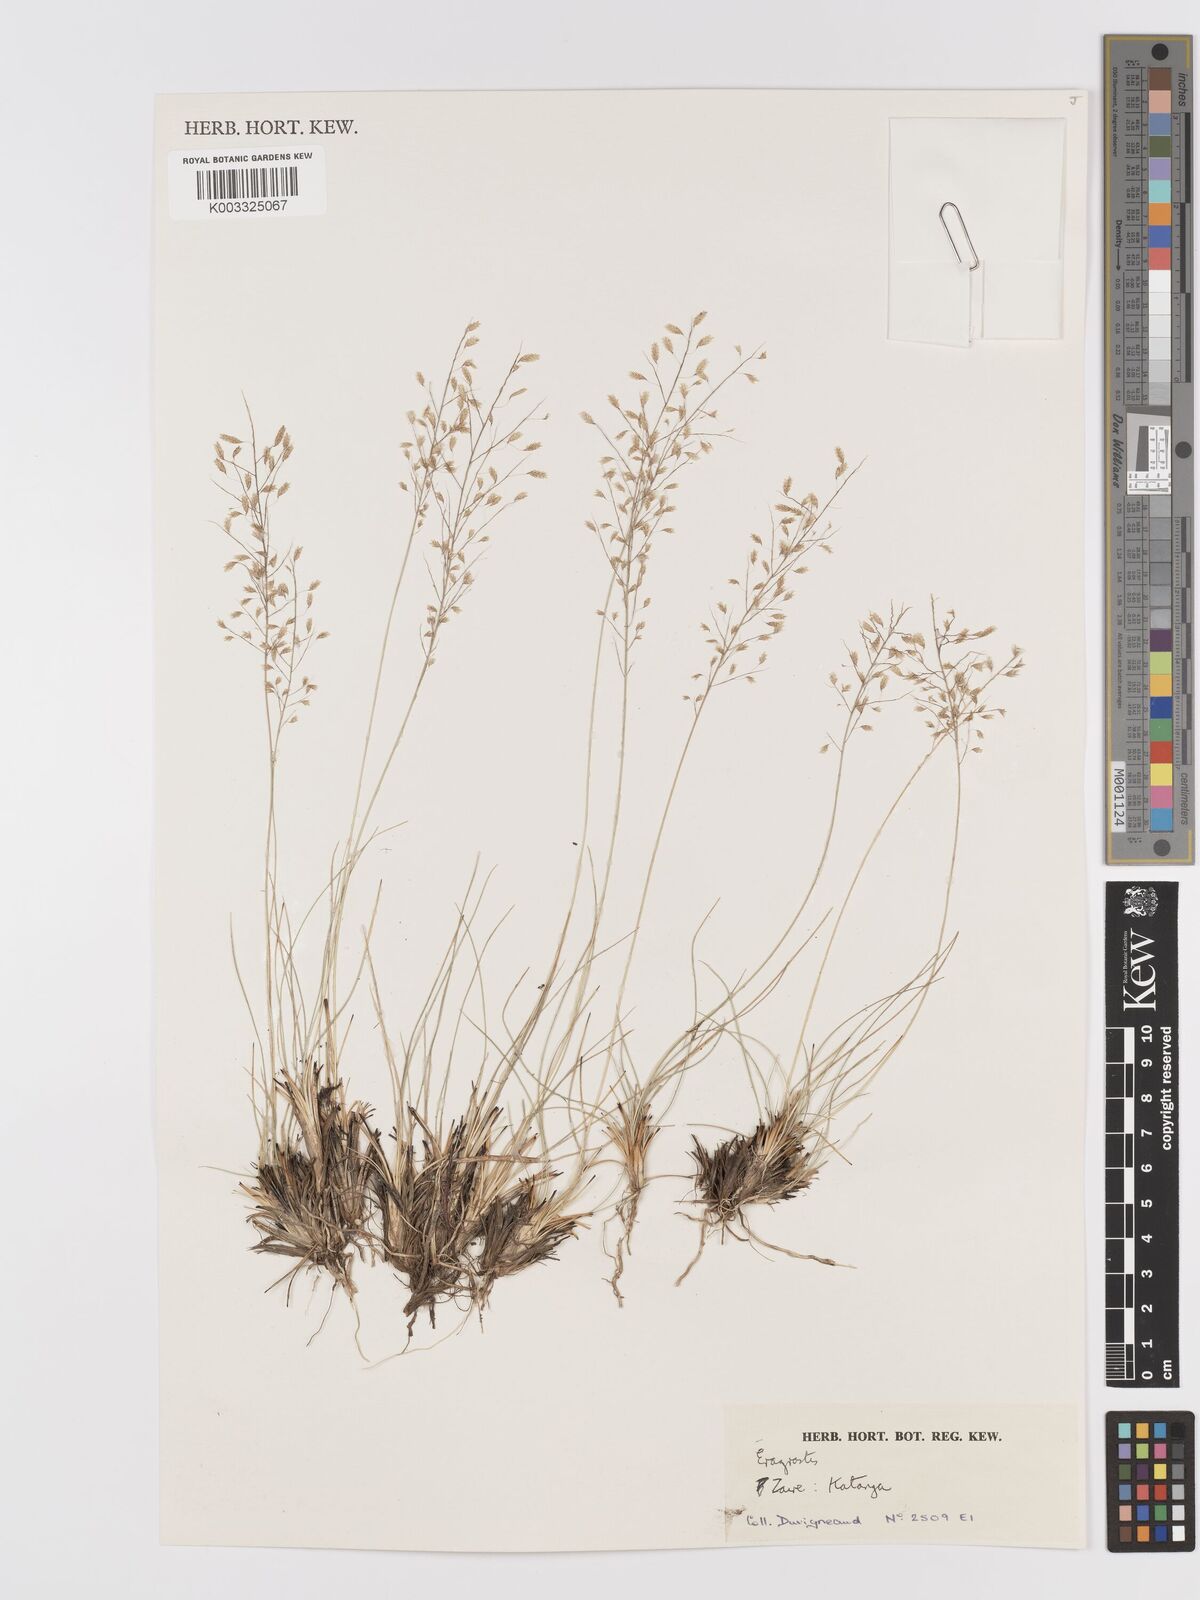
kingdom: Plantae
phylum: Tracheophyta
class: Liliopsida
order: Poales
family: Poaceae
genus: Eragrostis
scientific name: Eragrostis
